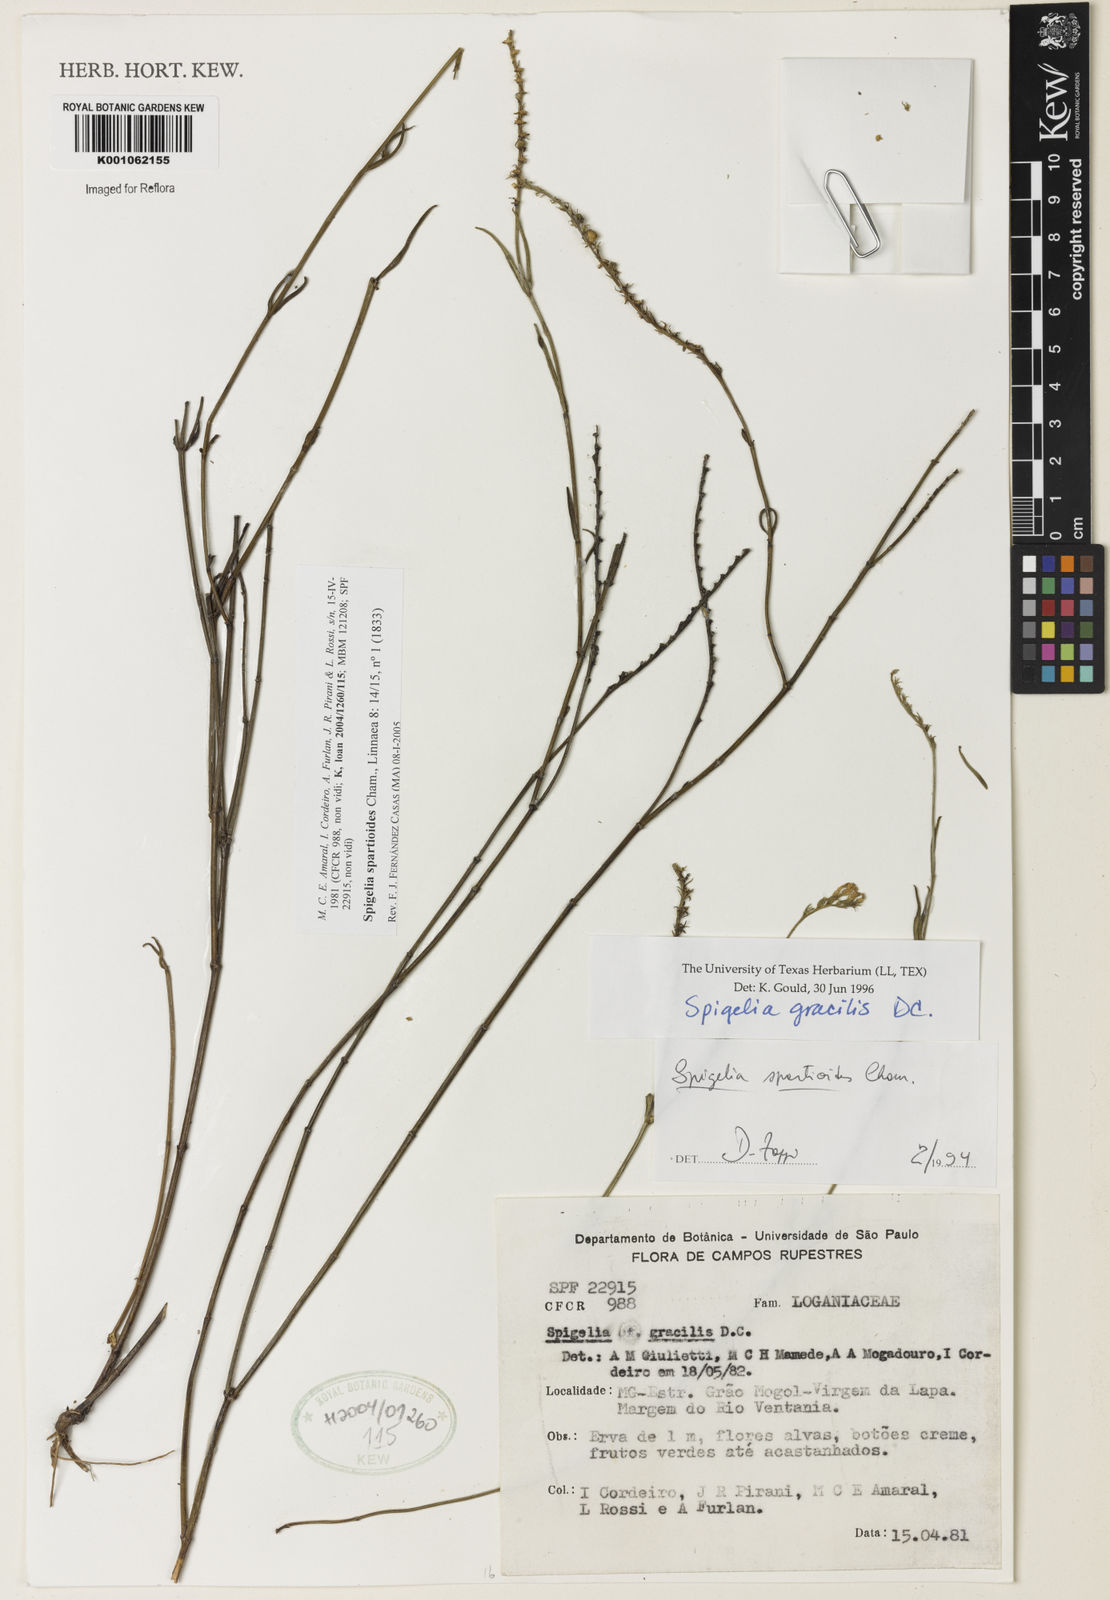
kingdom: Plantae
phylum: Tracheophyta
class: Magnoliopsida
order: Gentianales
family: Loganiaceae
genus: Spigelia
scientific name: Spigelia spartioides
